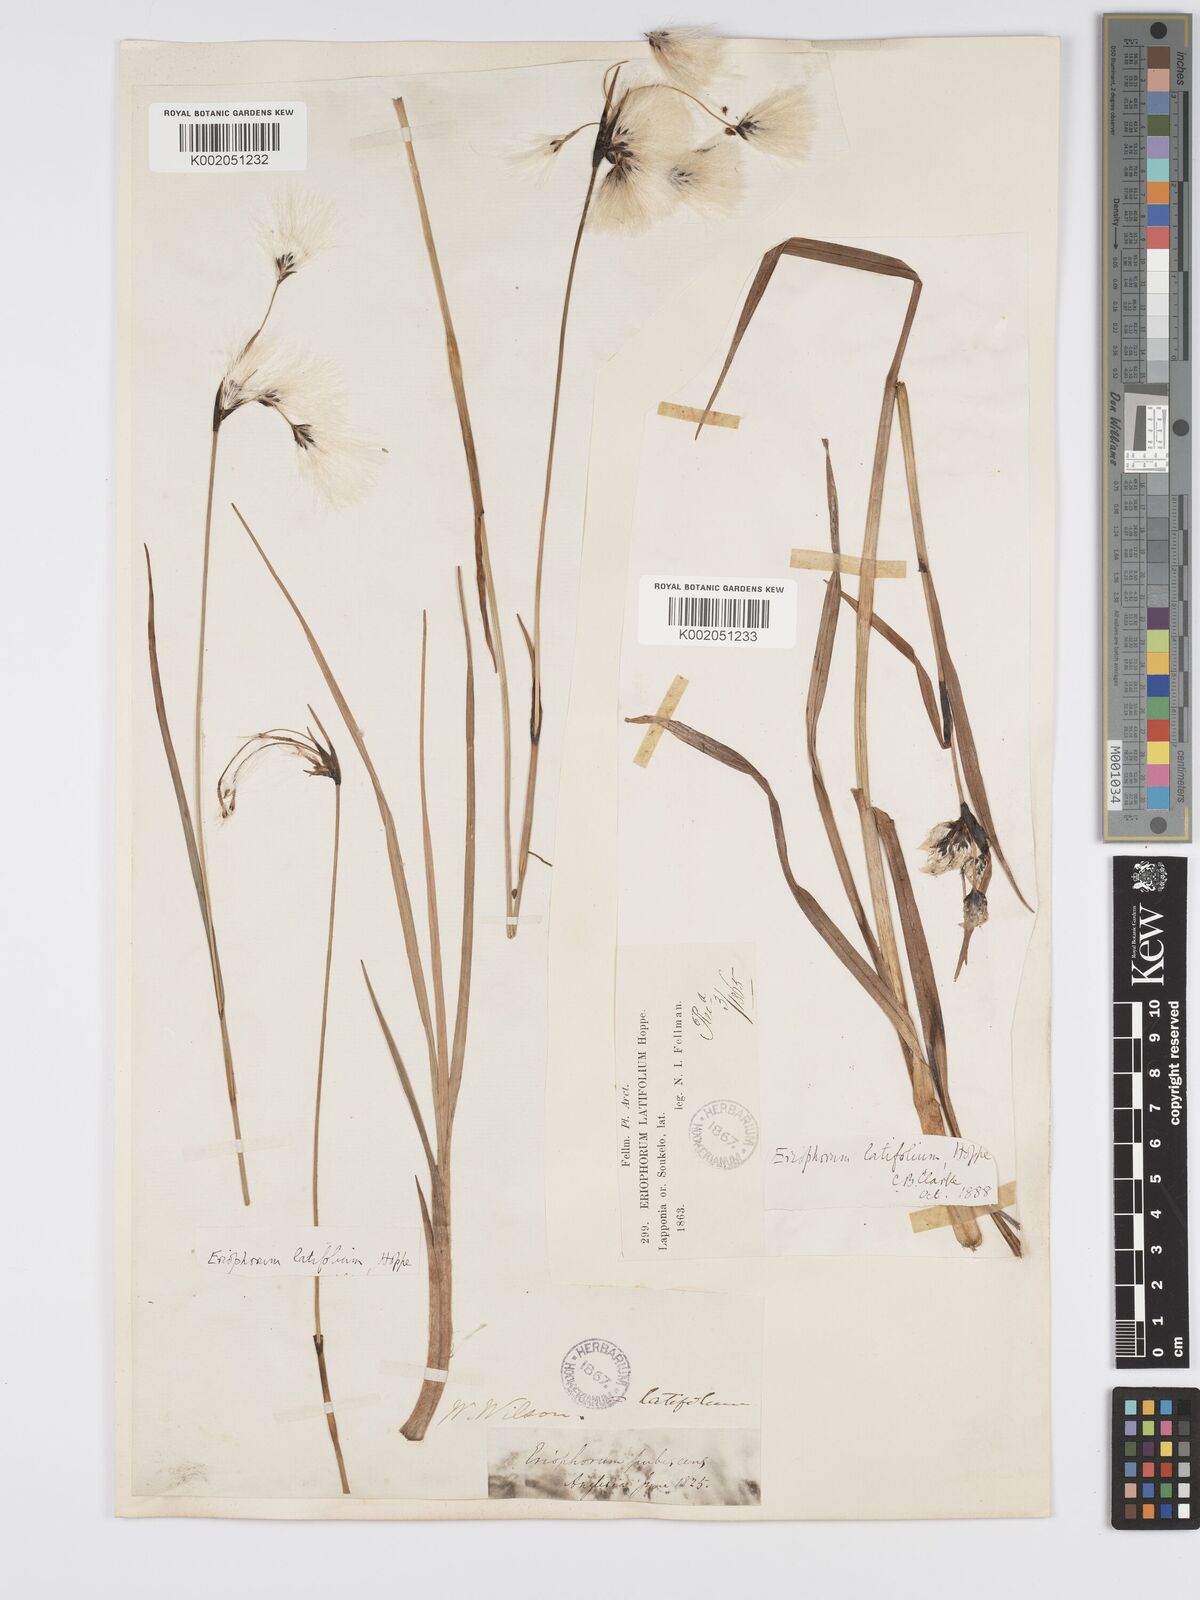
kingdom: Plantae
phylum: Tracheophyta
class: Liliopsida
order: Poales
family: Cyperaceae
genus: Eriophorum
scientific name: Eriophorum latifolium
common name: Broad-leaved cottongrass
